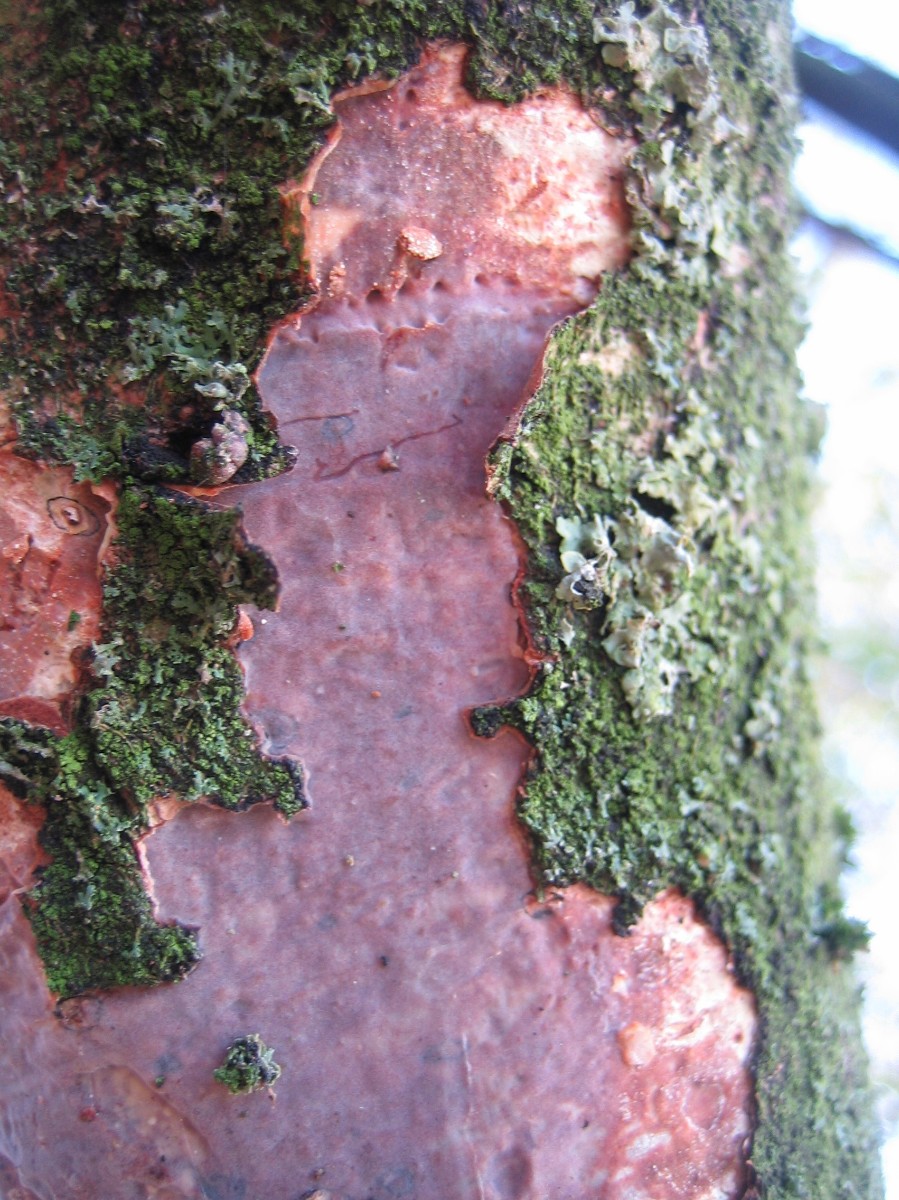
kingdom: Fungi
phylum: Basidiomycota
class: Agaricomycetes
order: Corticiales
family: Vuilleminiaceae
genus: Vuilleminia
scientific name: Vuilleminia comedens
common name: almindelig barksprænger
